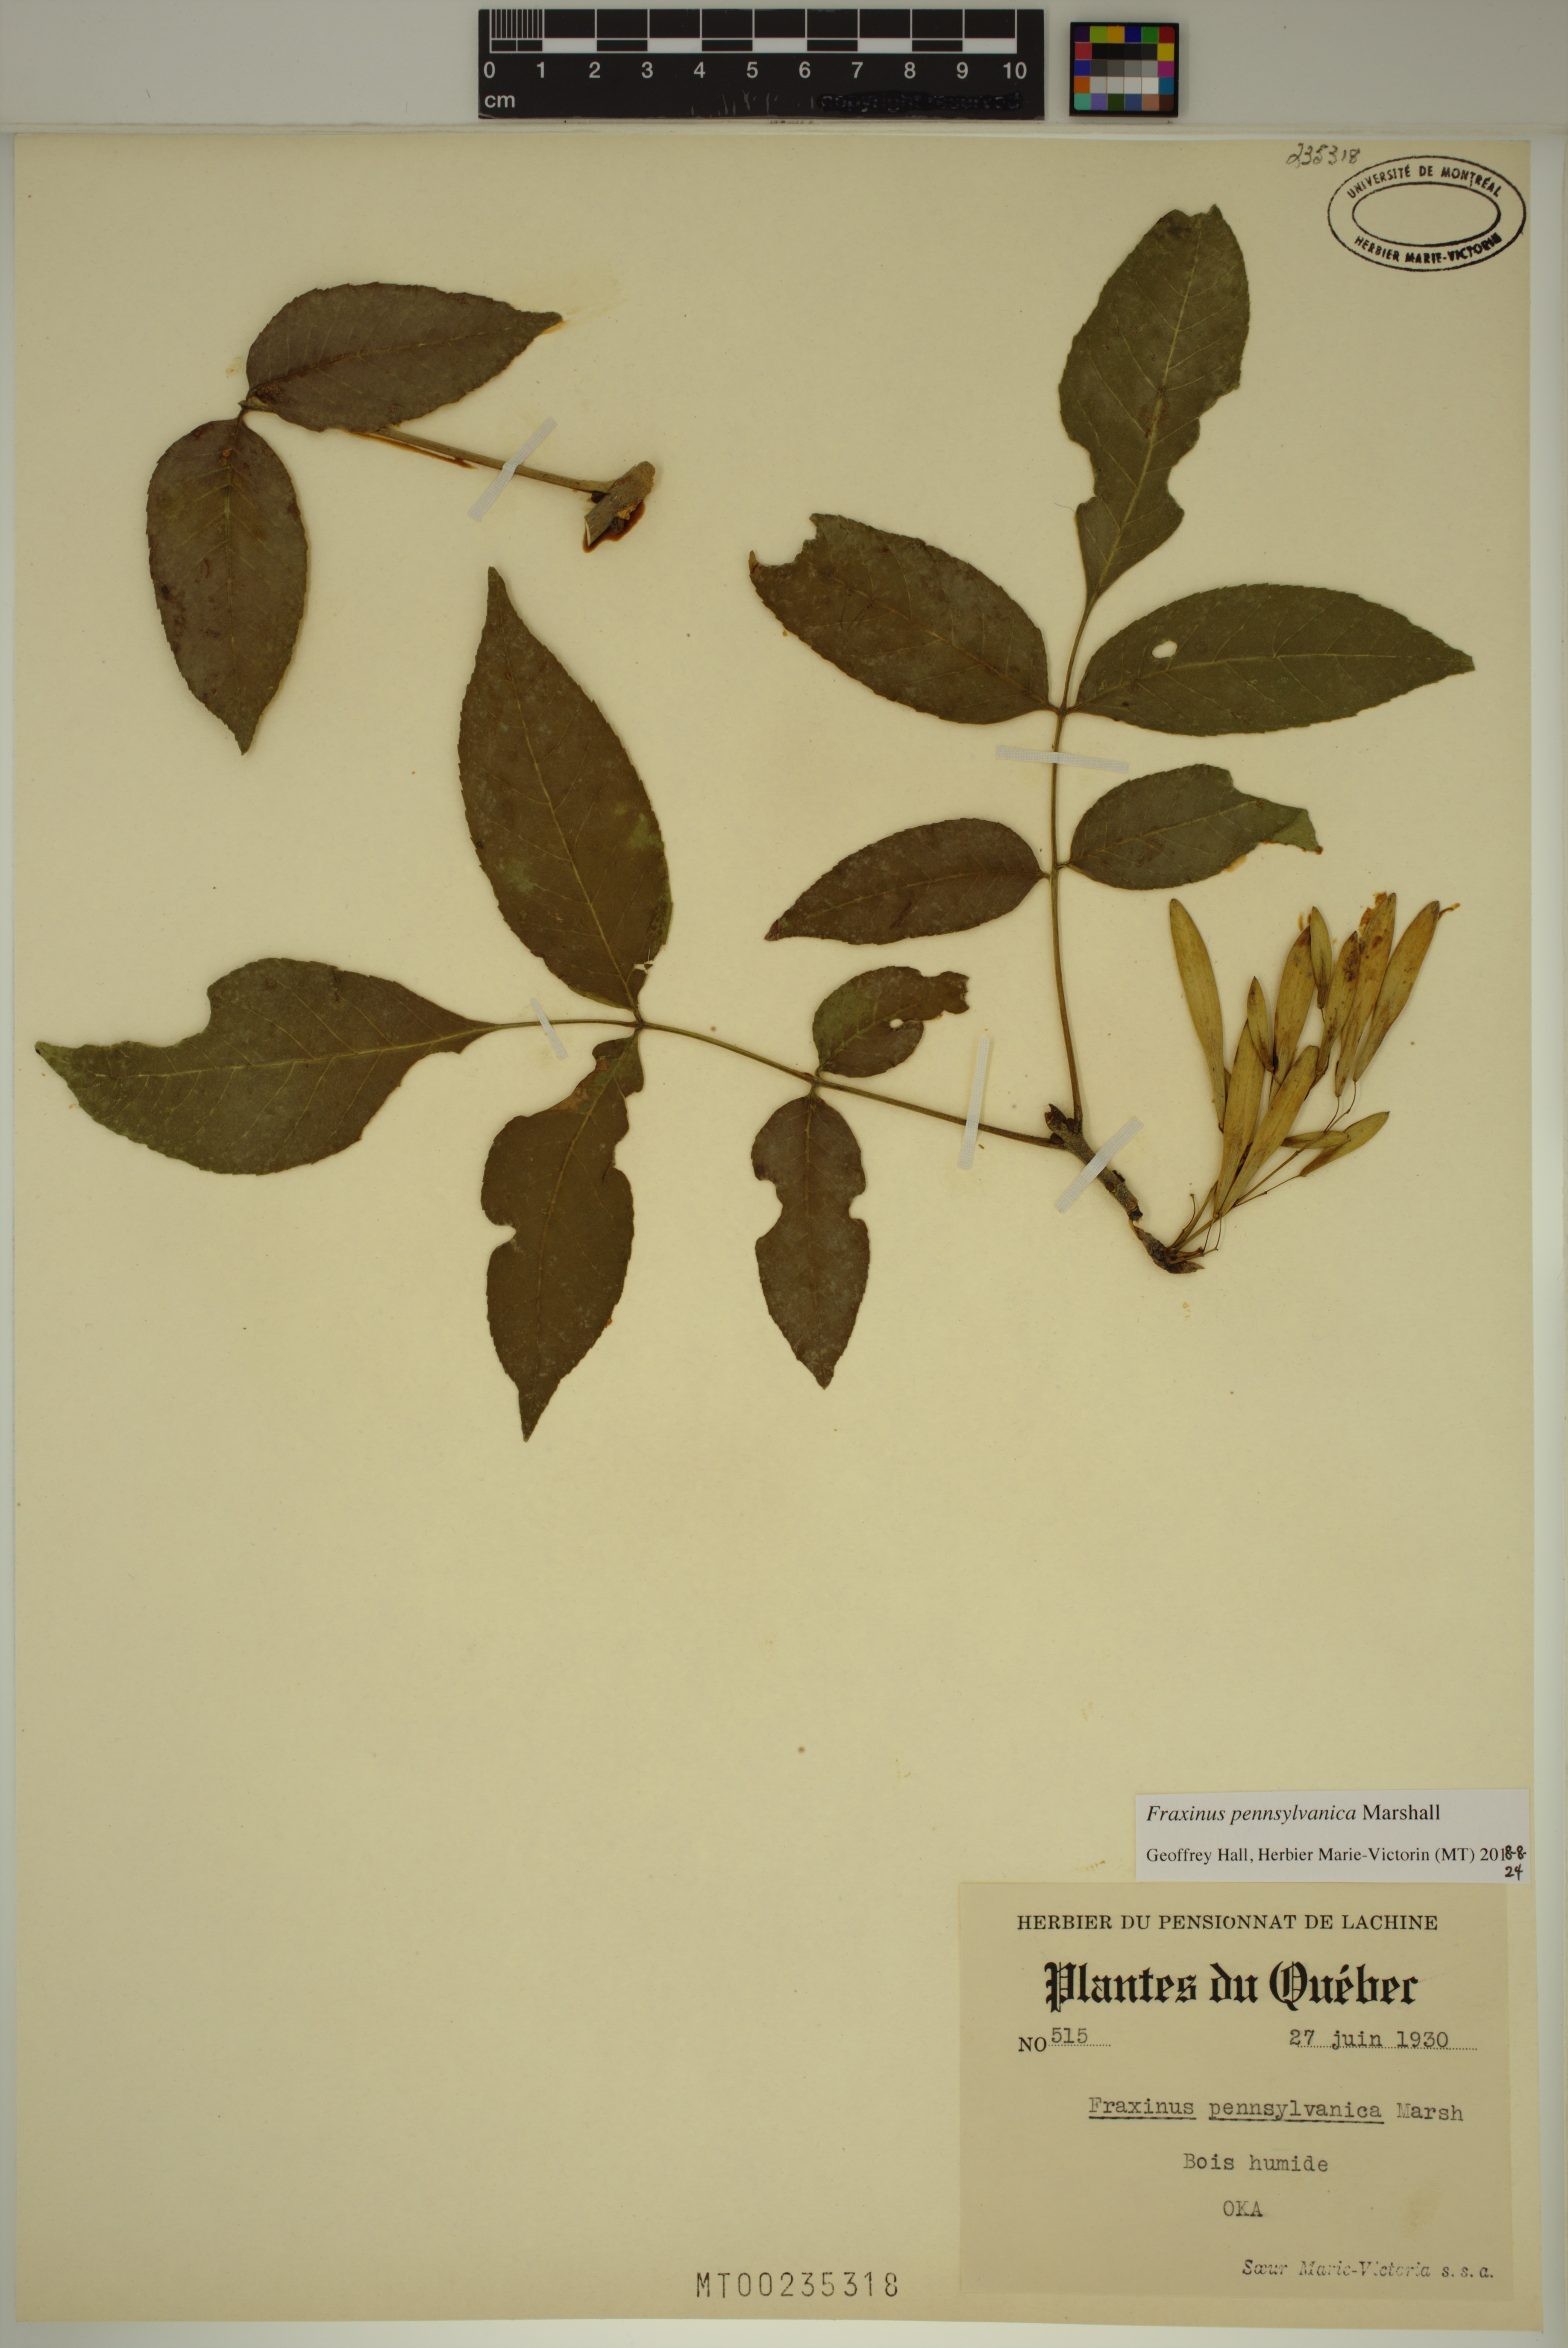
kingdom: Plantae
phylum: Tracheophyta
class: Magnoliopsida
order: Lamiales
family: Oleaceae
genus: Fraxinus
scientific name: Fraxinus pennsylvanica
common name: Green ash
